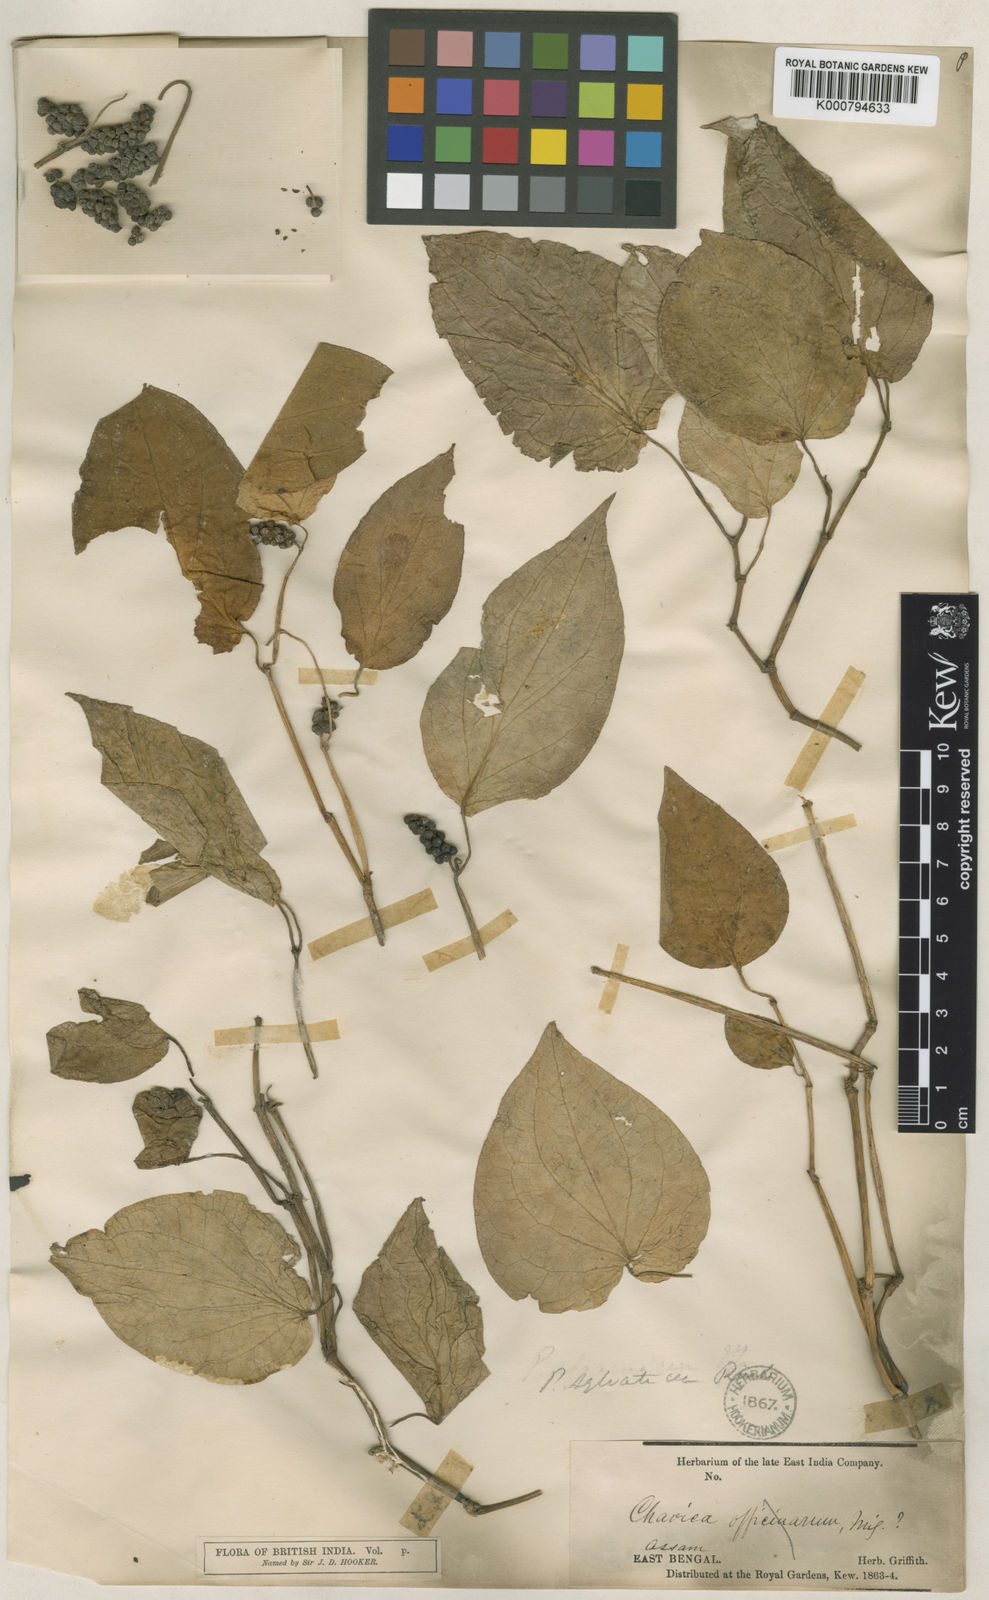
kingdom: Plantae
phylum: Tracheophyta
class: Magnoliopsida
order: Piperales
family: Piperaceae
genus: Piper
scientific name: Piper sylvaticum
